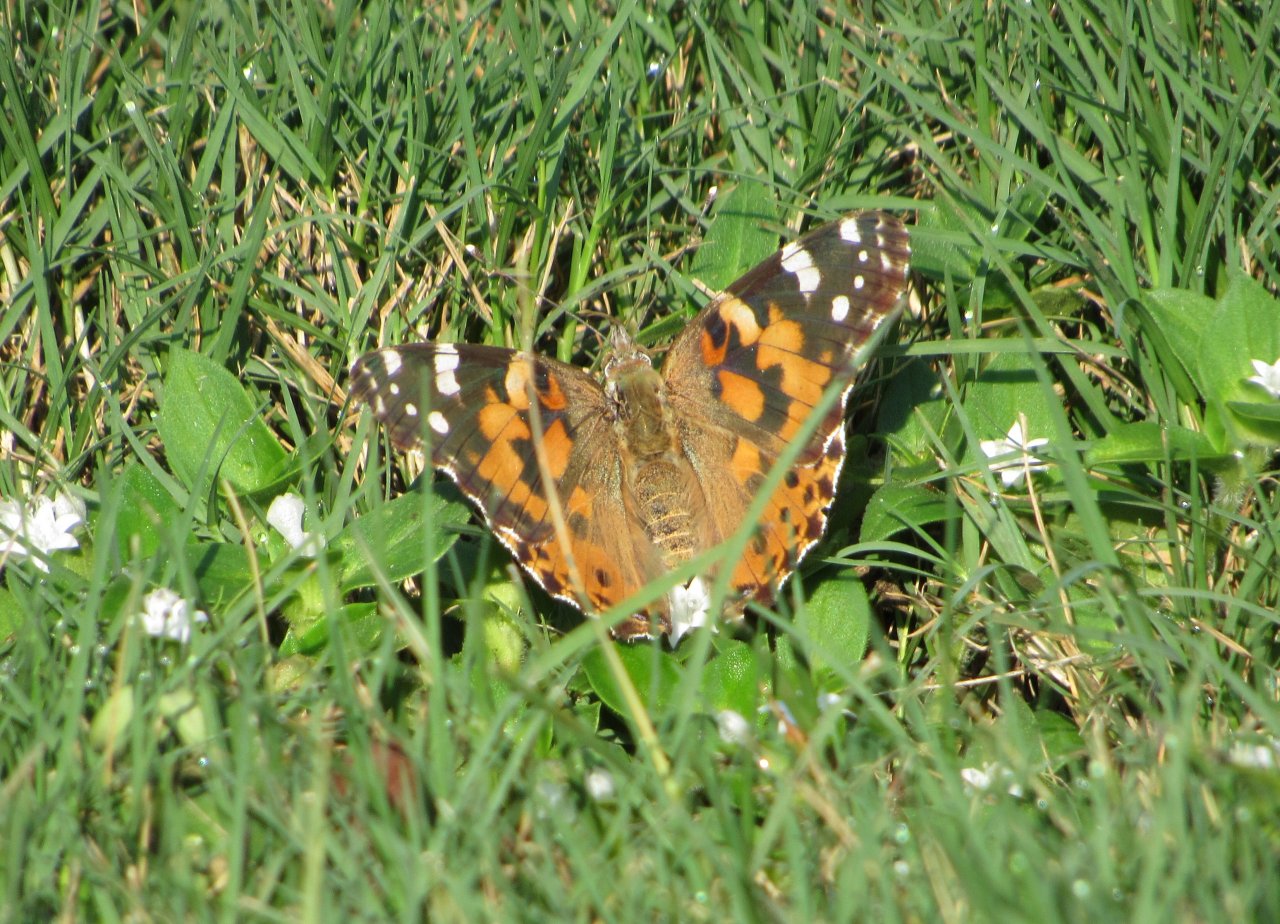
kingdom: Animalia
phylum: Arthropoda
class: Insecta
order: Lepidoptera
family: Nymphalidae
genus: Vanessa
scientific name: Vanessa cardui
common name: Painted Lady
